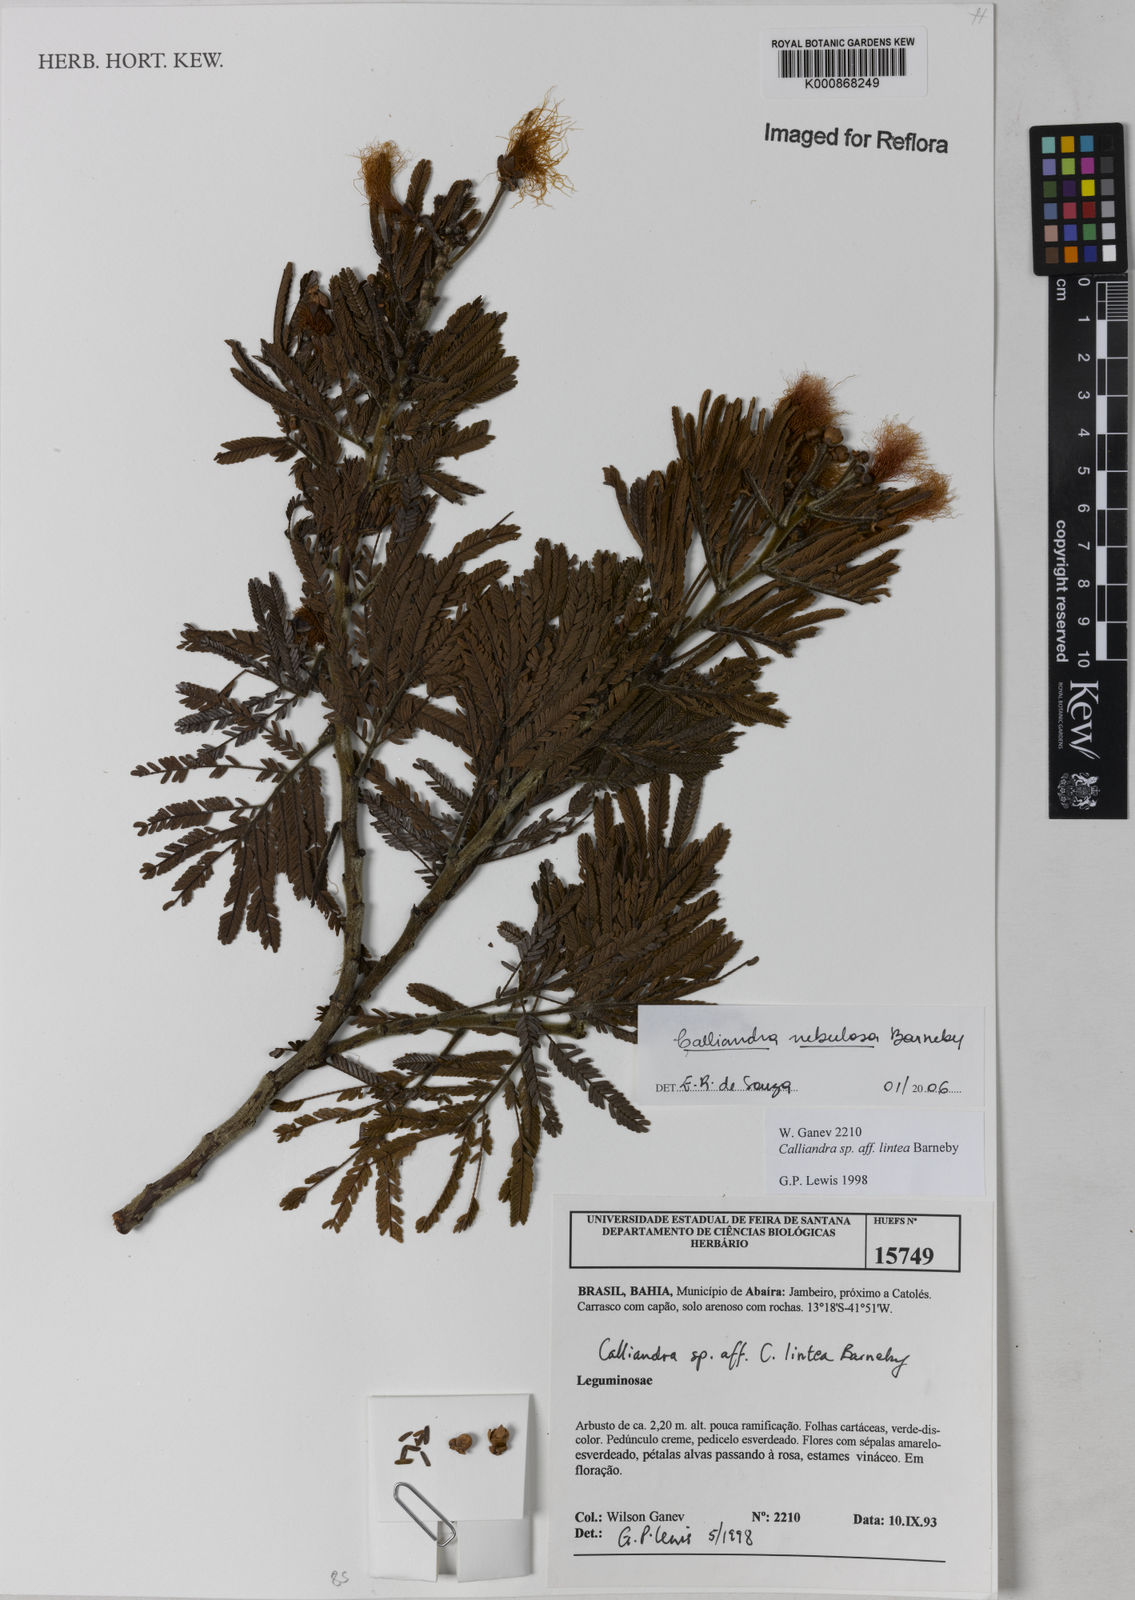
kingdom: Plantae
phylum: Tracheophyta
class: Magnoliopsida
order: Fabales
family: Fabaceae
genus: Calliandra
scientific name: Calliandra nebulosa
